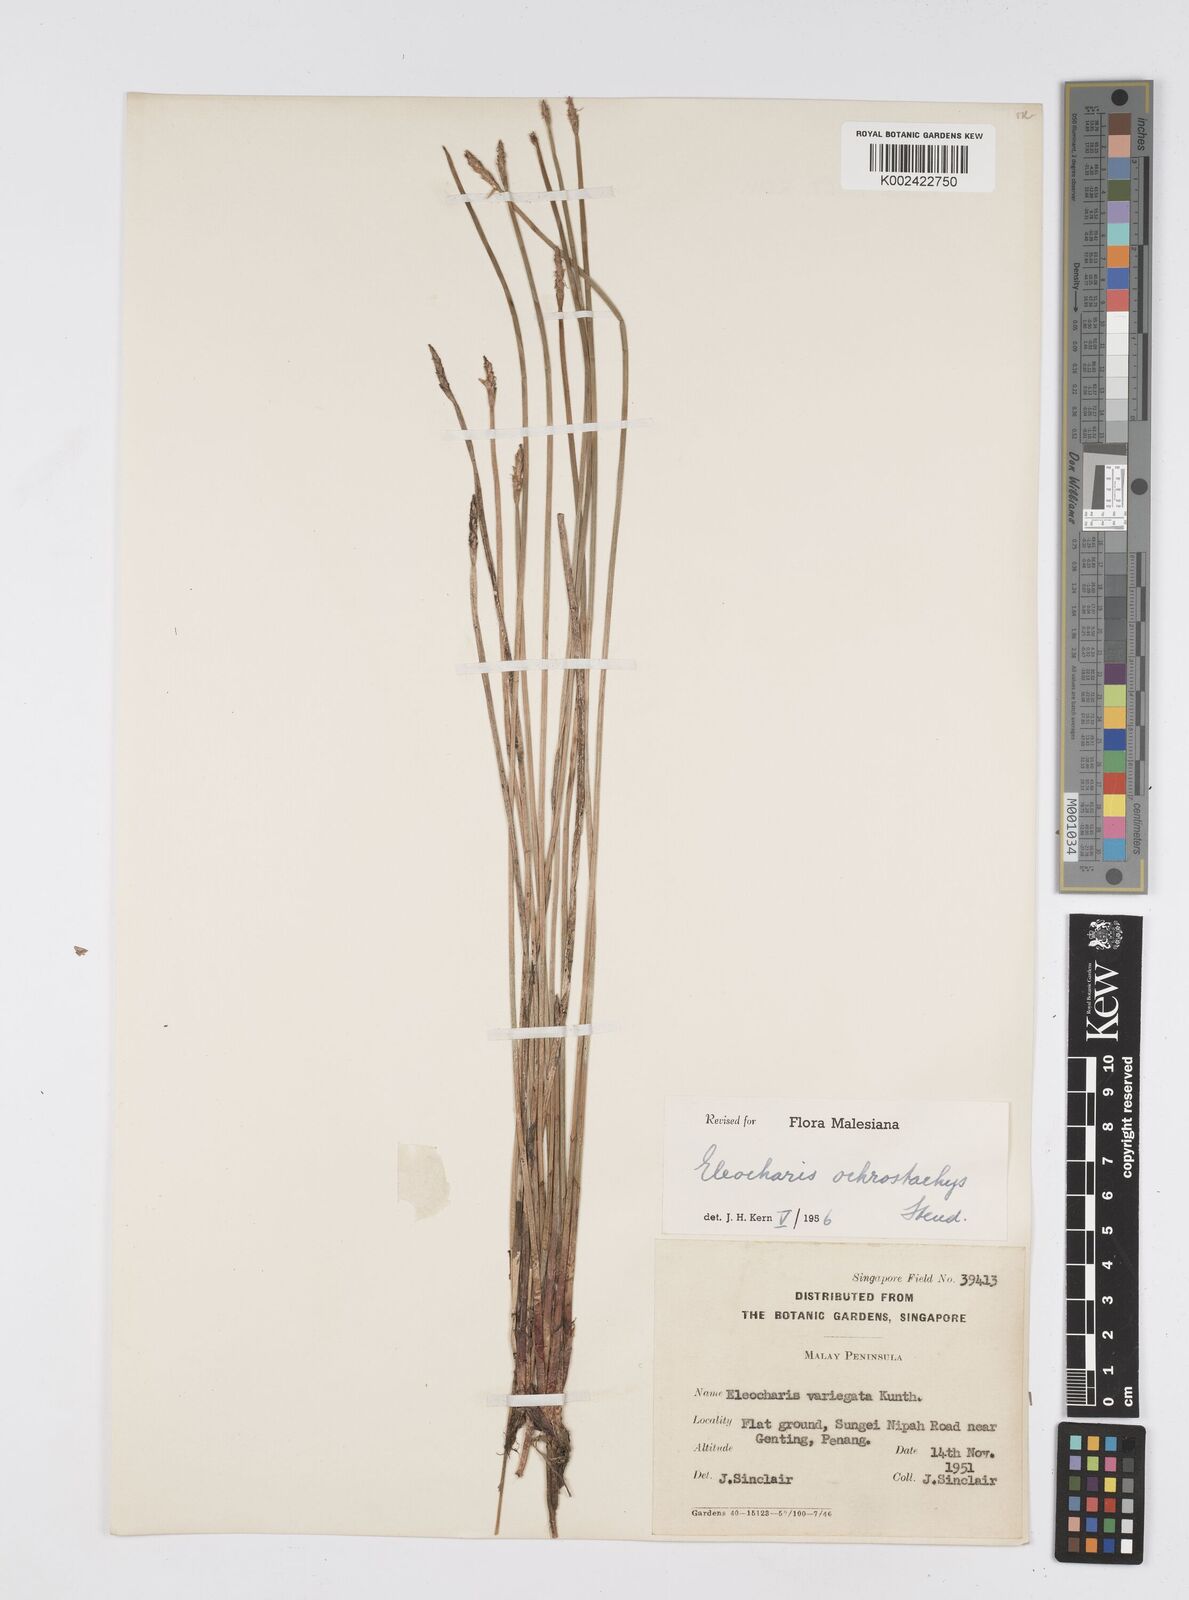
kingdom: Plantae
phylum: Tracheophyta
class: Liliopsida
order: Poales
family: Cyperaceae
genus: Eleocharis
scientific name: Eleocharis ochrostachys
